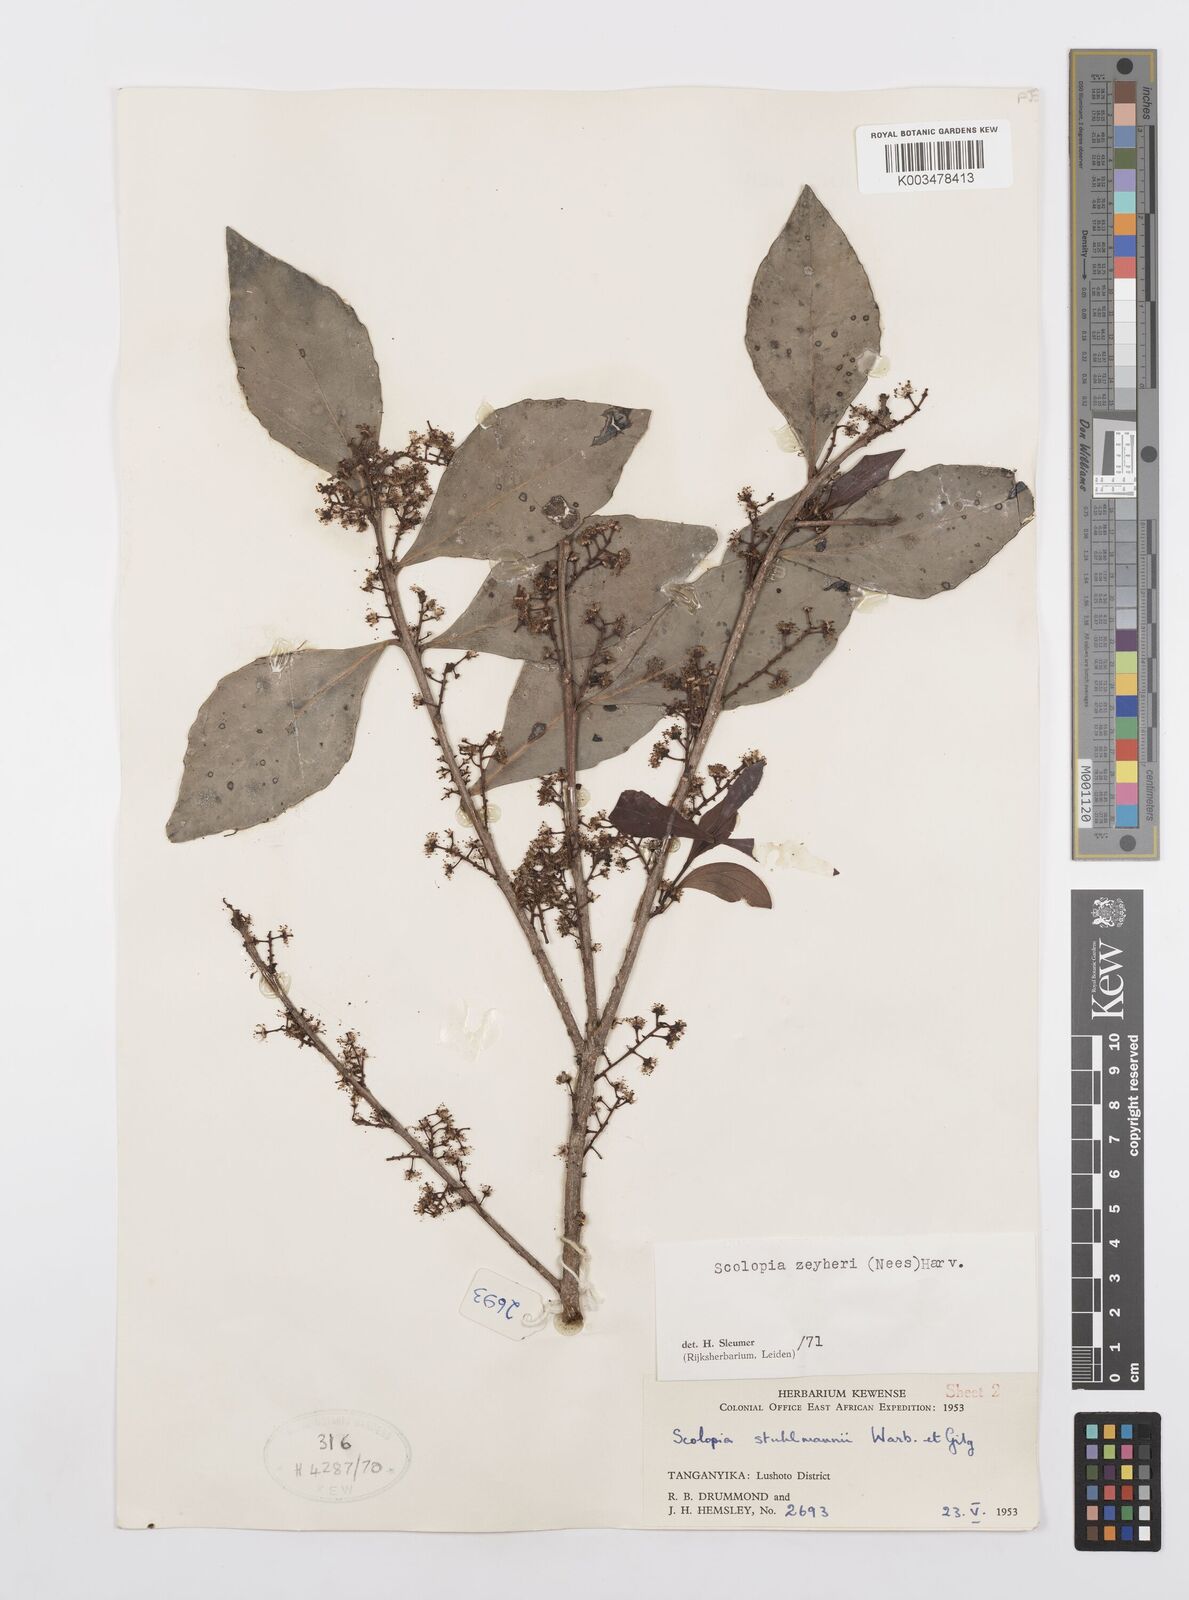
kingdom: Plantae
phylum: Tracheophyta
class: Magnoliopsida
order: Malpighiales
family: Salicaceae
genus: Scolopia
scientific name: Scolopia zeyheri
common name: Thorn pear
